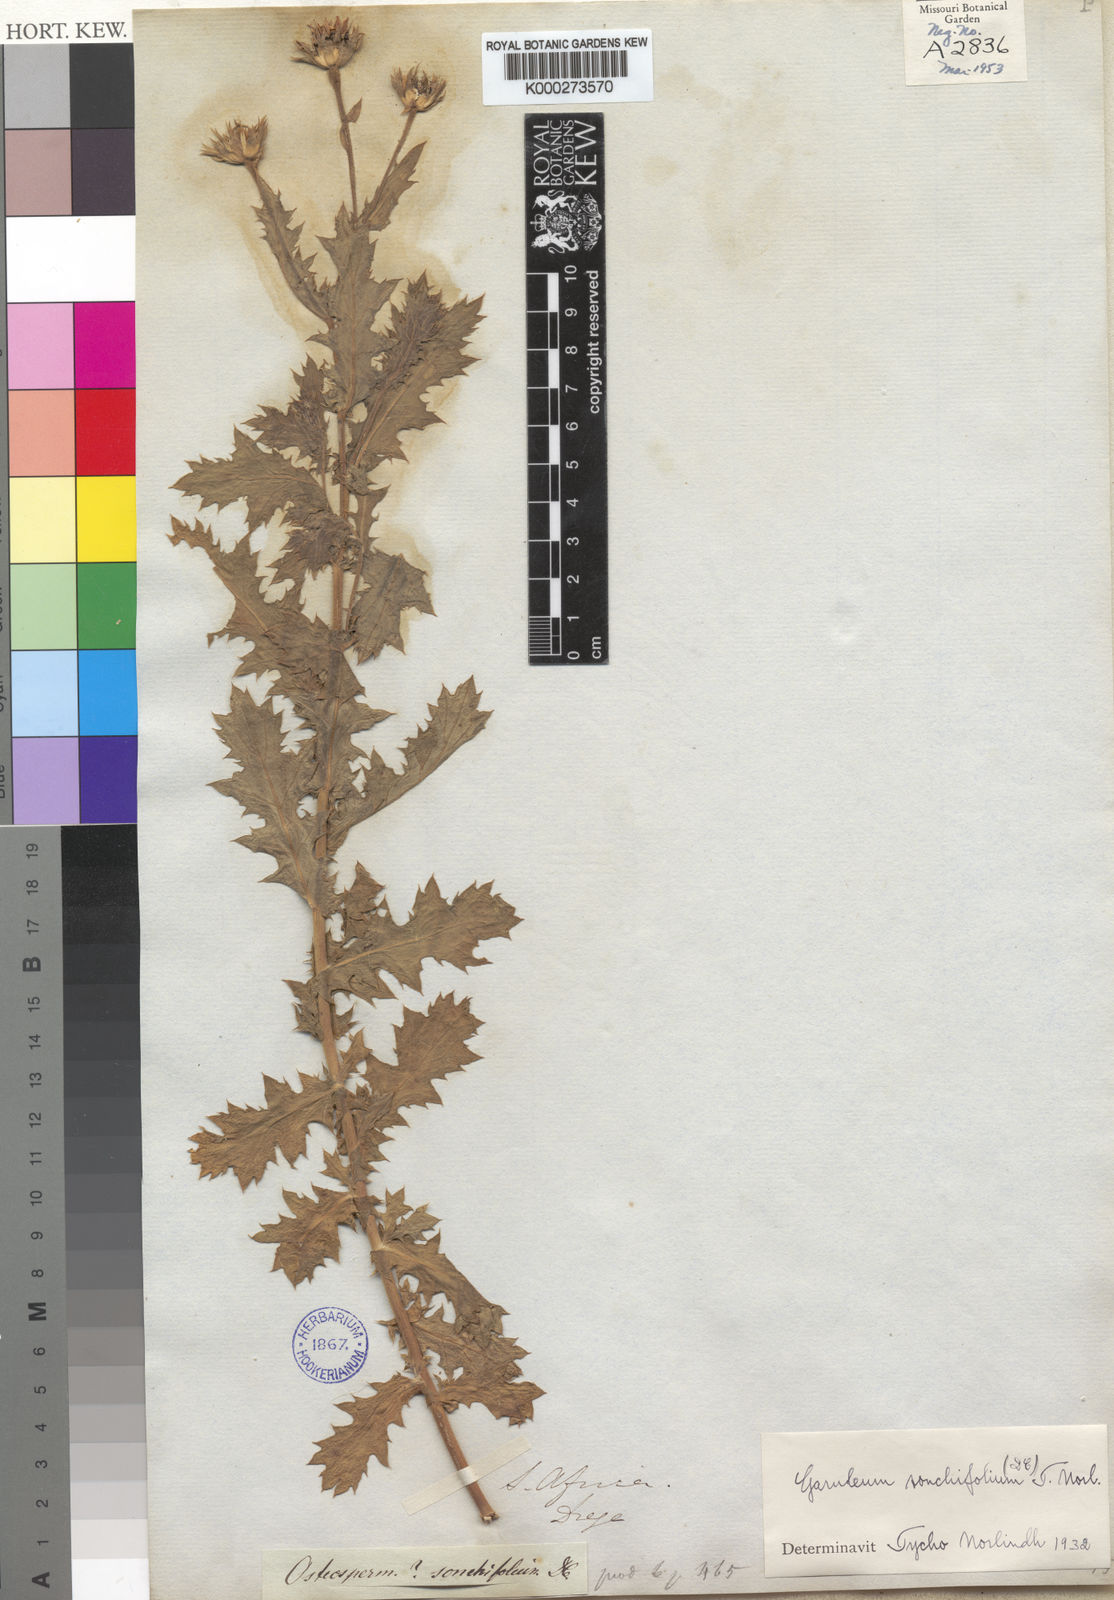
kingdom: Plantae
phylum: Tracheophyta
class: Magnoliopsida
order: Asterales
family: Asteraceae
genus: Garuleum
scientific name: Garuleum sonchifolium
